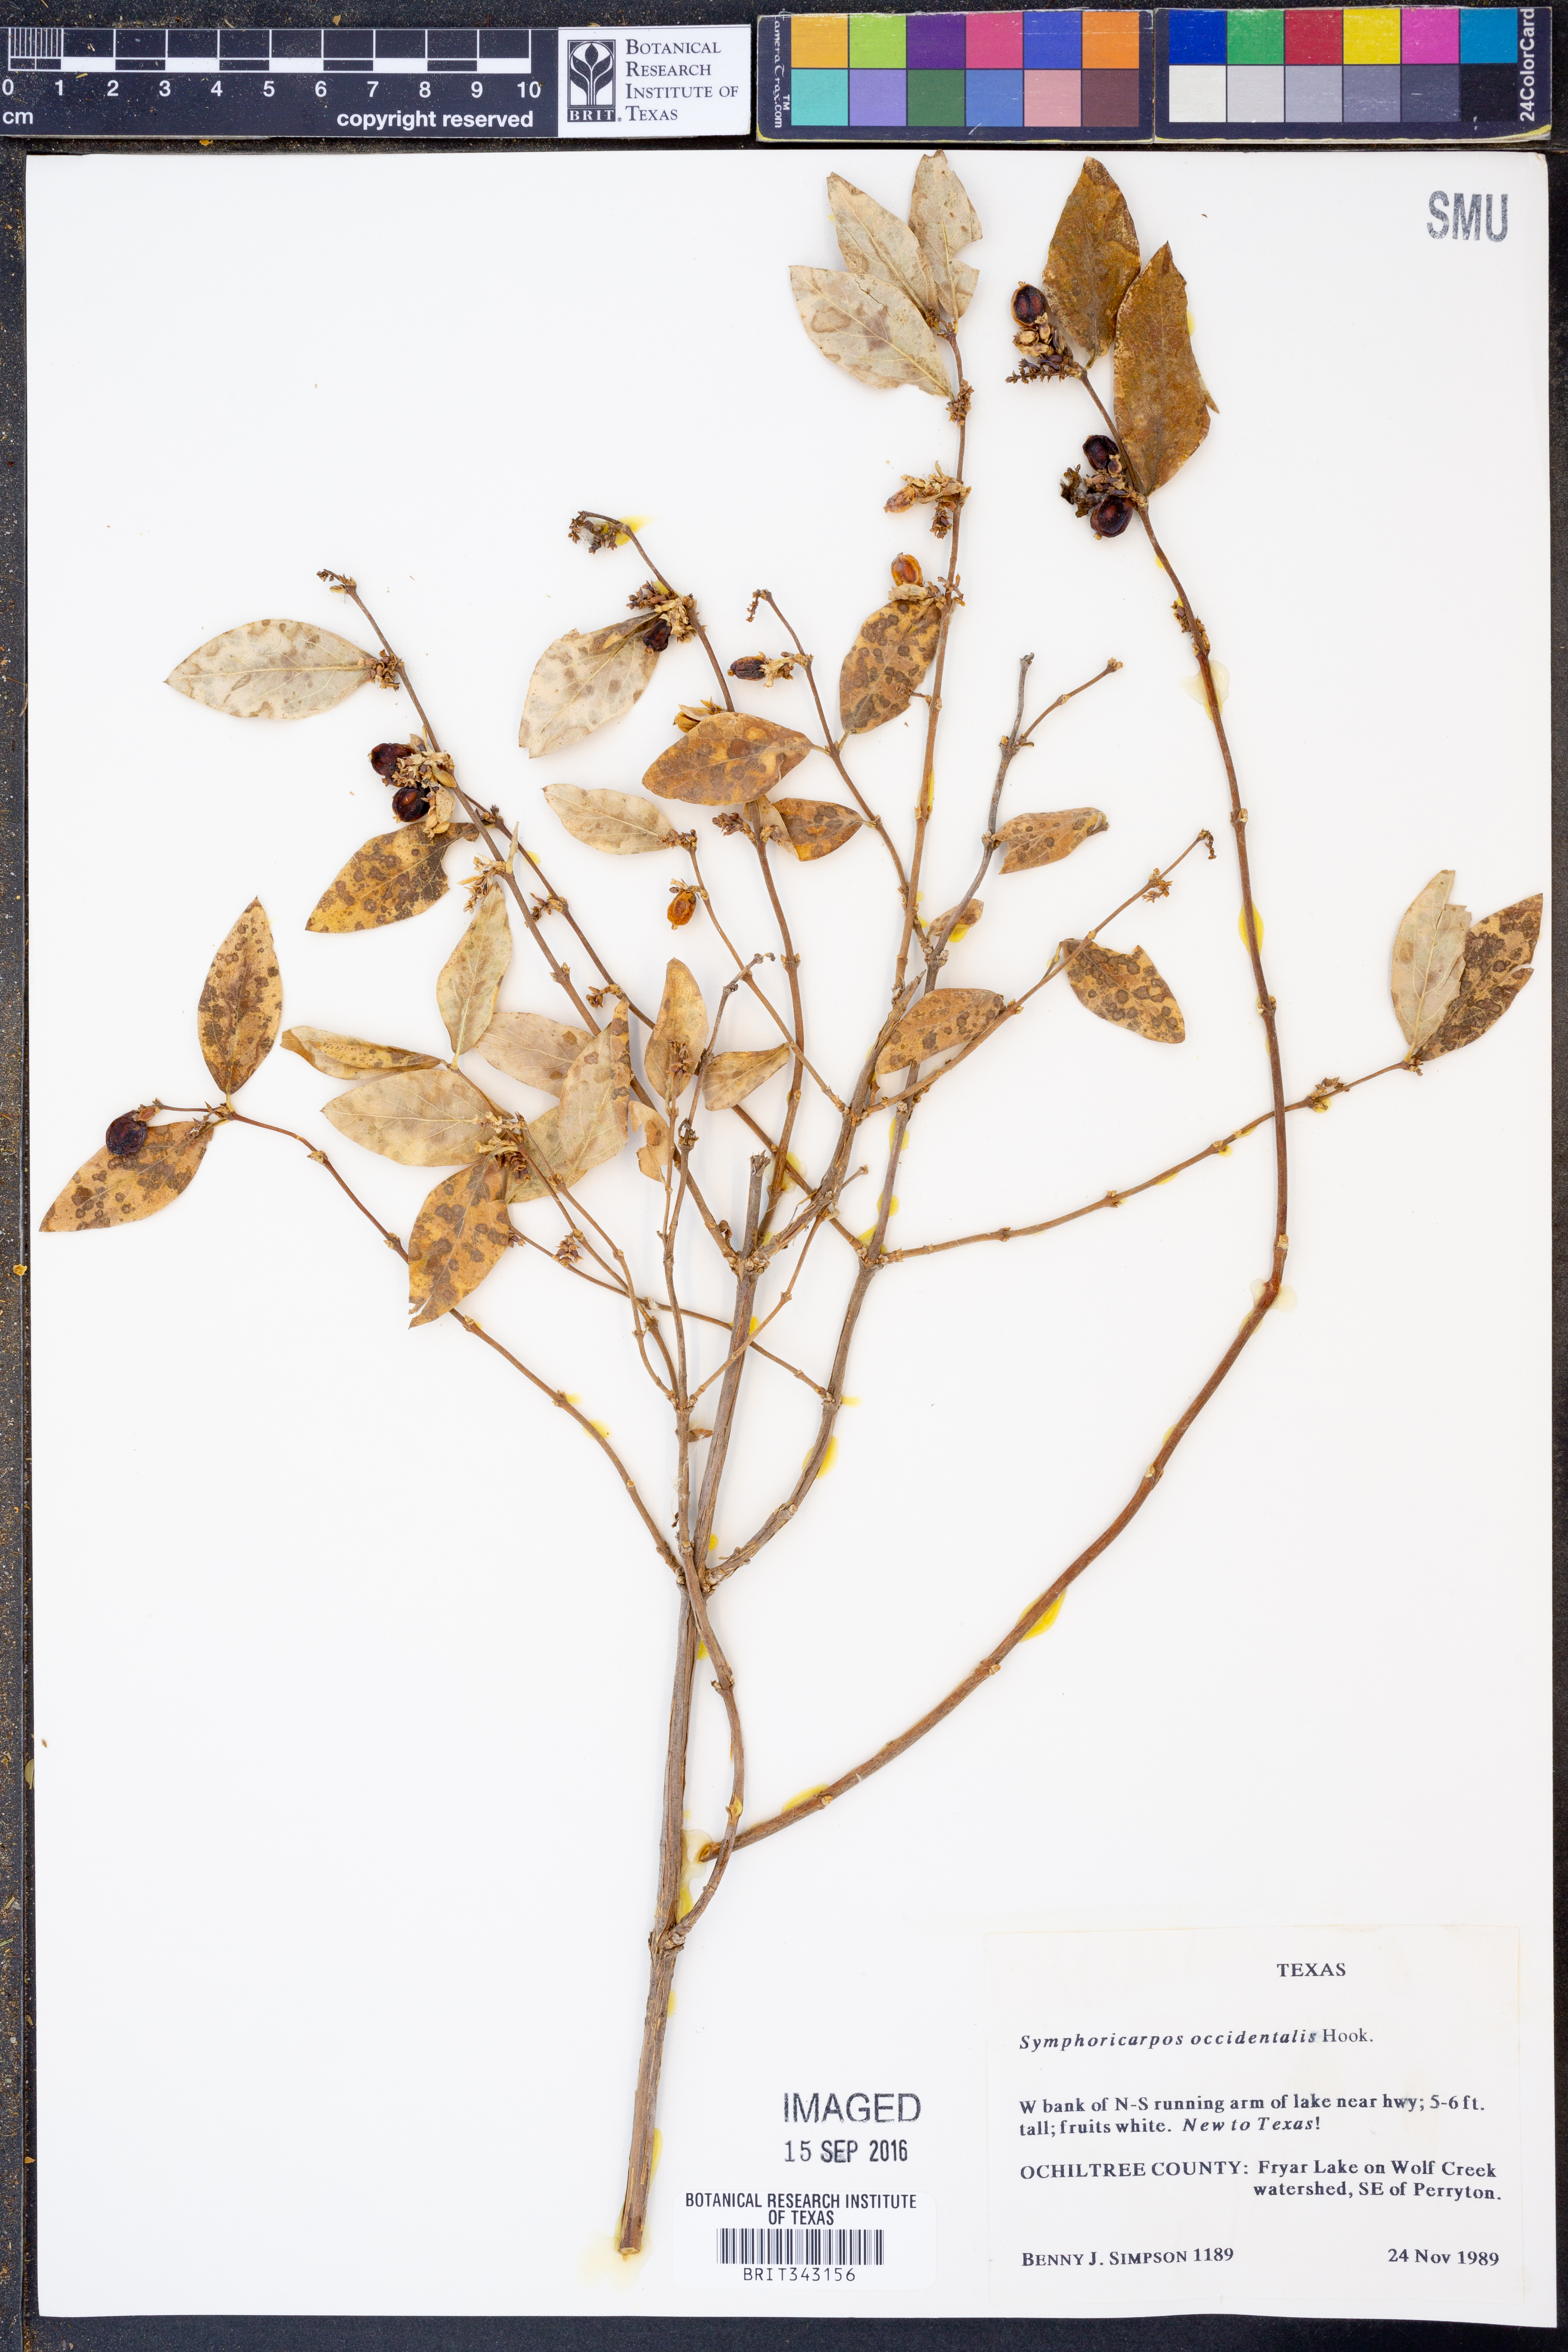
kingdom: Plantae
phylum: Tracheophyta
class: Magnoliopsida
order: Dipsacales
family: Caprifoliaceae
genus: Symphoricarpos
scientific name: Symphoricarpos occidentalis
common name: Wolfberry
